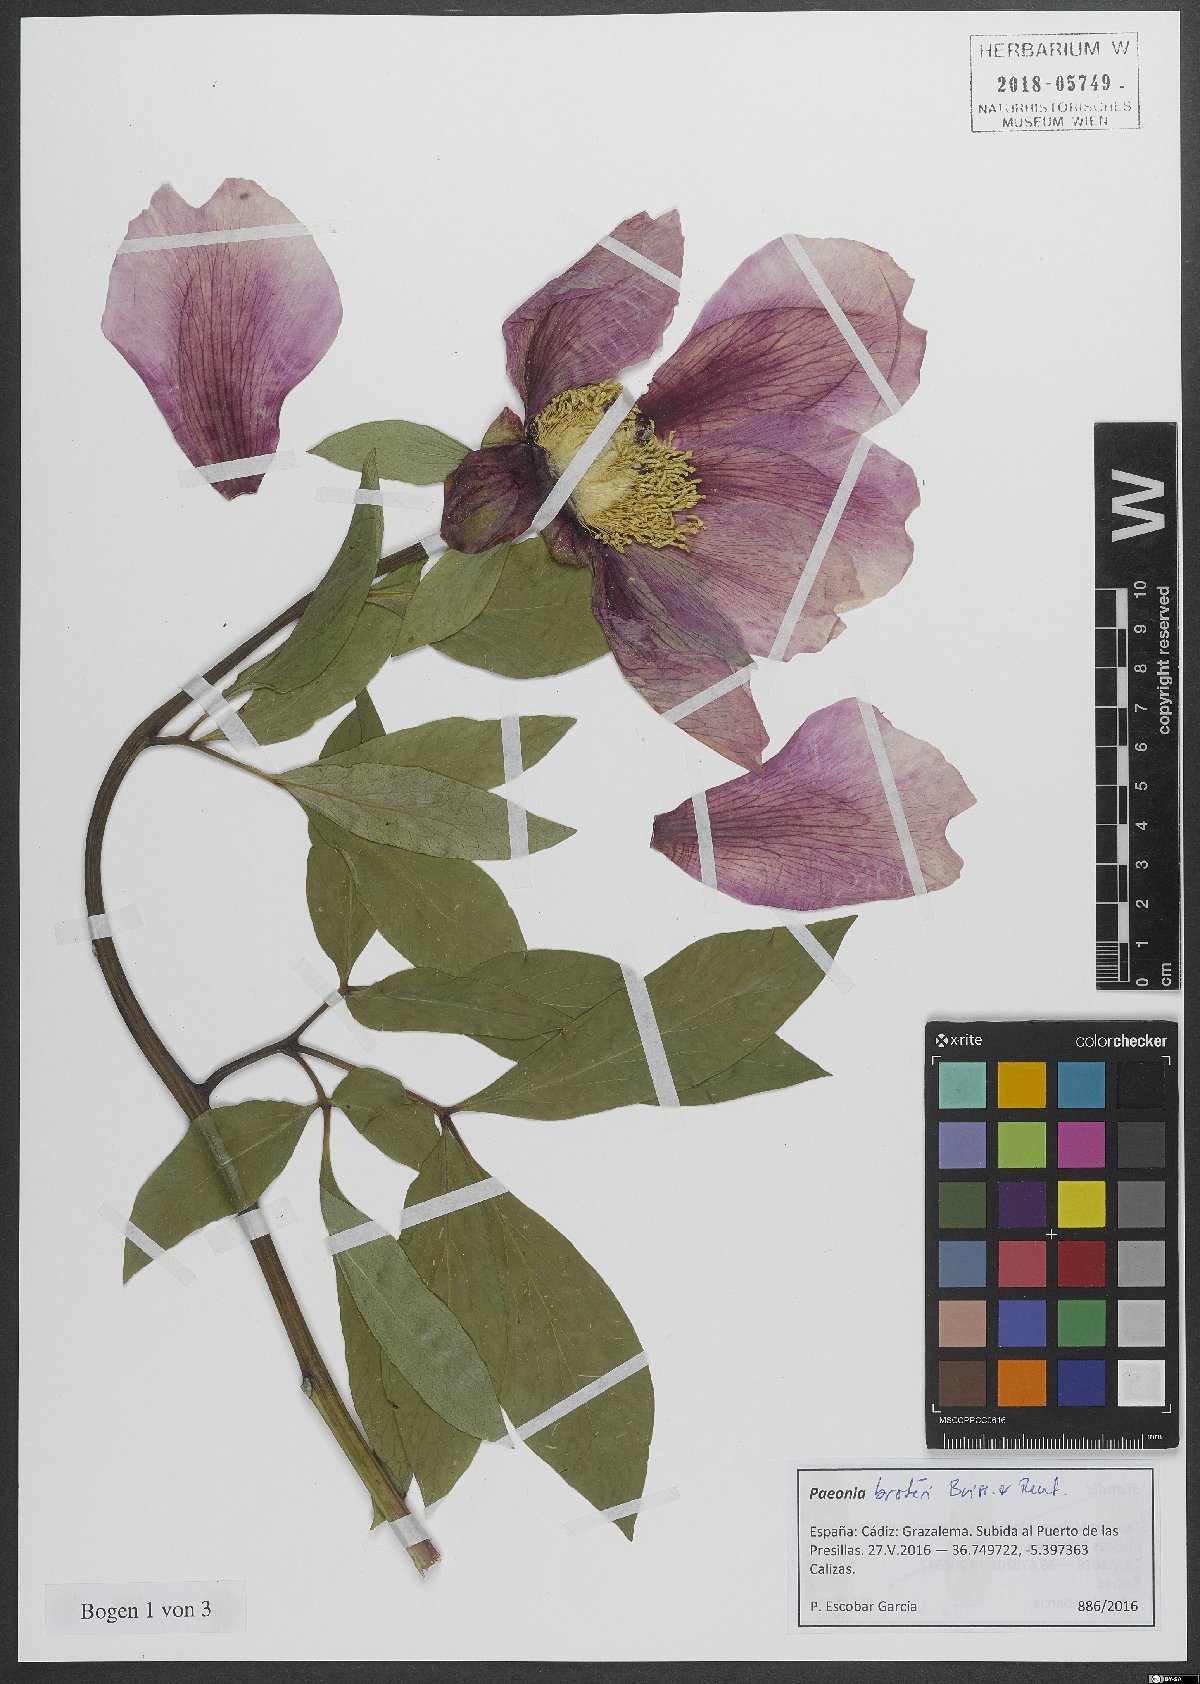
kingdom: Plantae
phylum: Tracheophyta
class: Magnoliopsida
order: Saxifragales
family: Paeoniaceae
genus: Paeonia
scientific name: Paeonia broteroi
